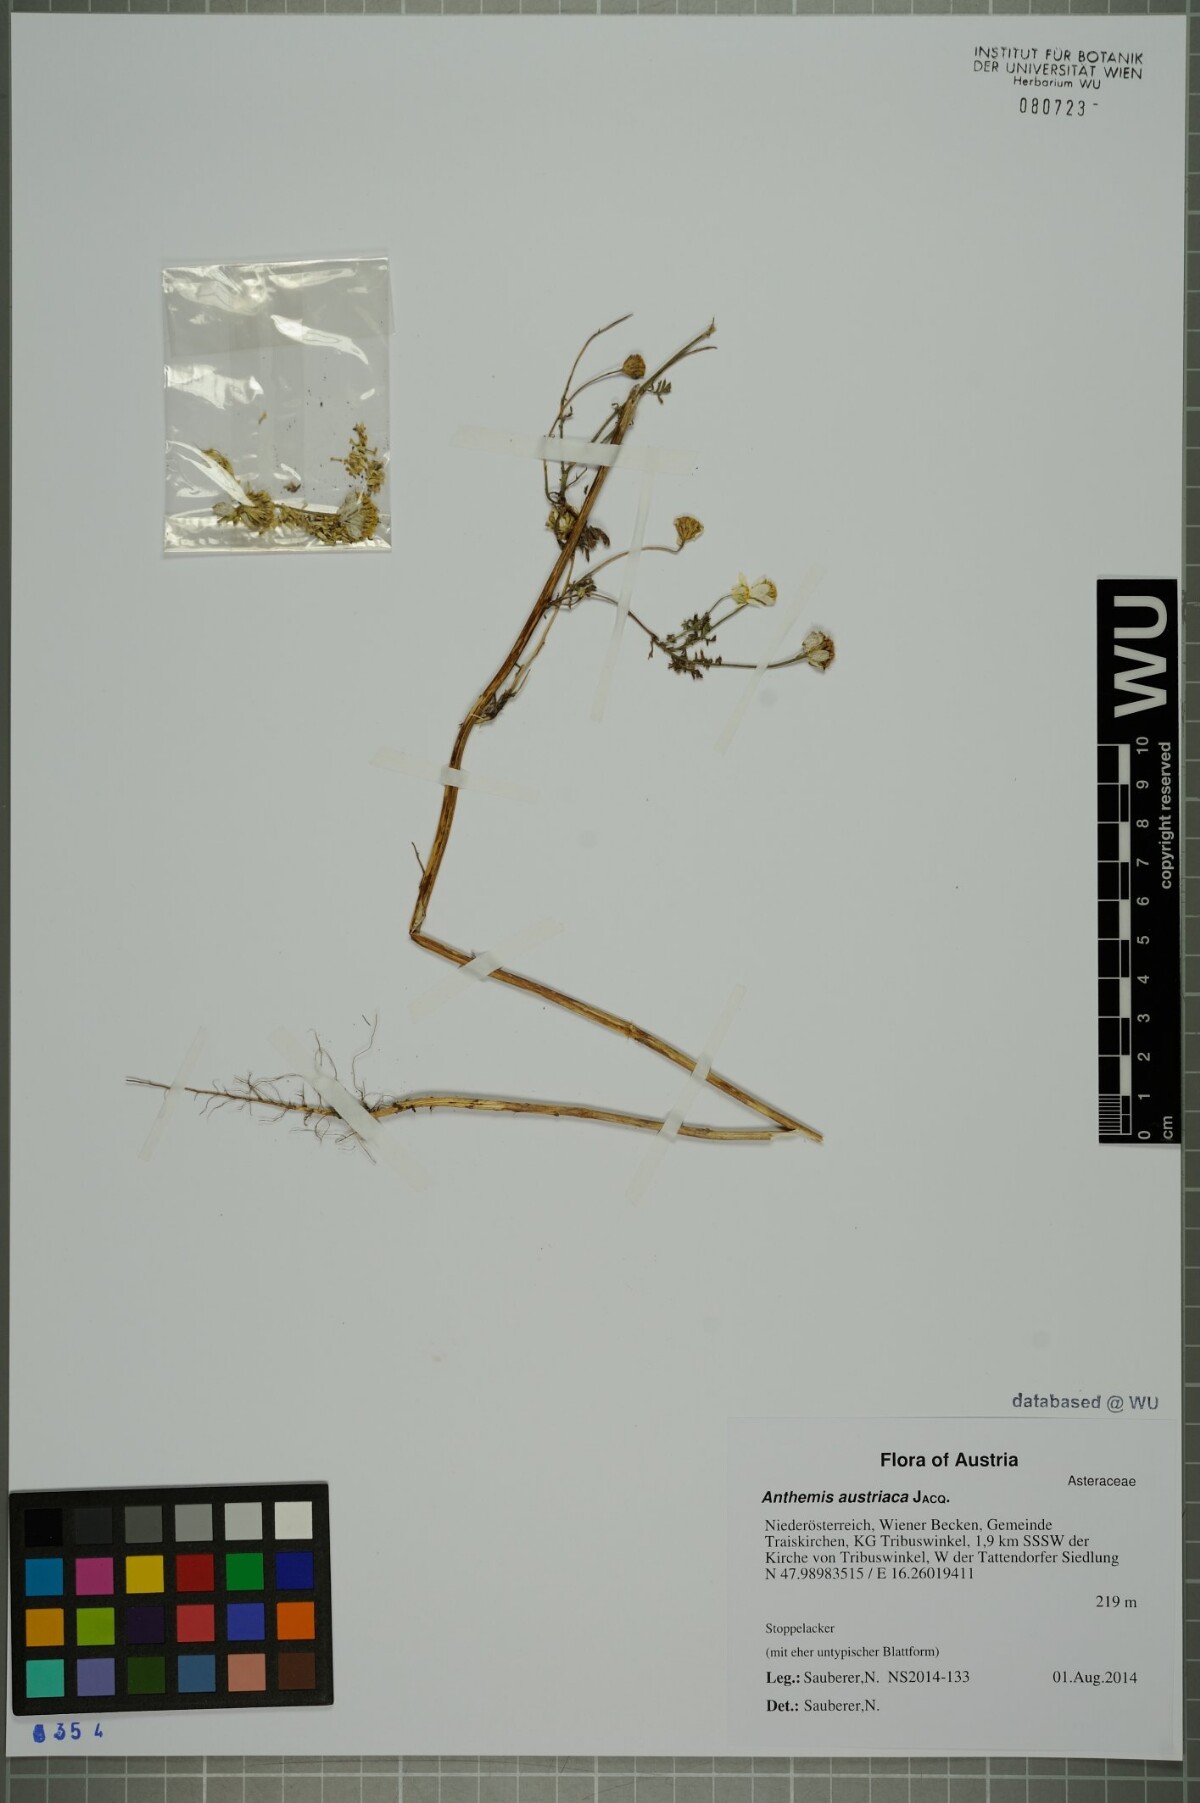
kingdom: Plantae
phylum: Tracheophyta
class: Magnoliopsida
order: Asterales
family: Asteraceae
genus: Cota
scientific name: Cota austriaca
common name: Austrian chamomile
